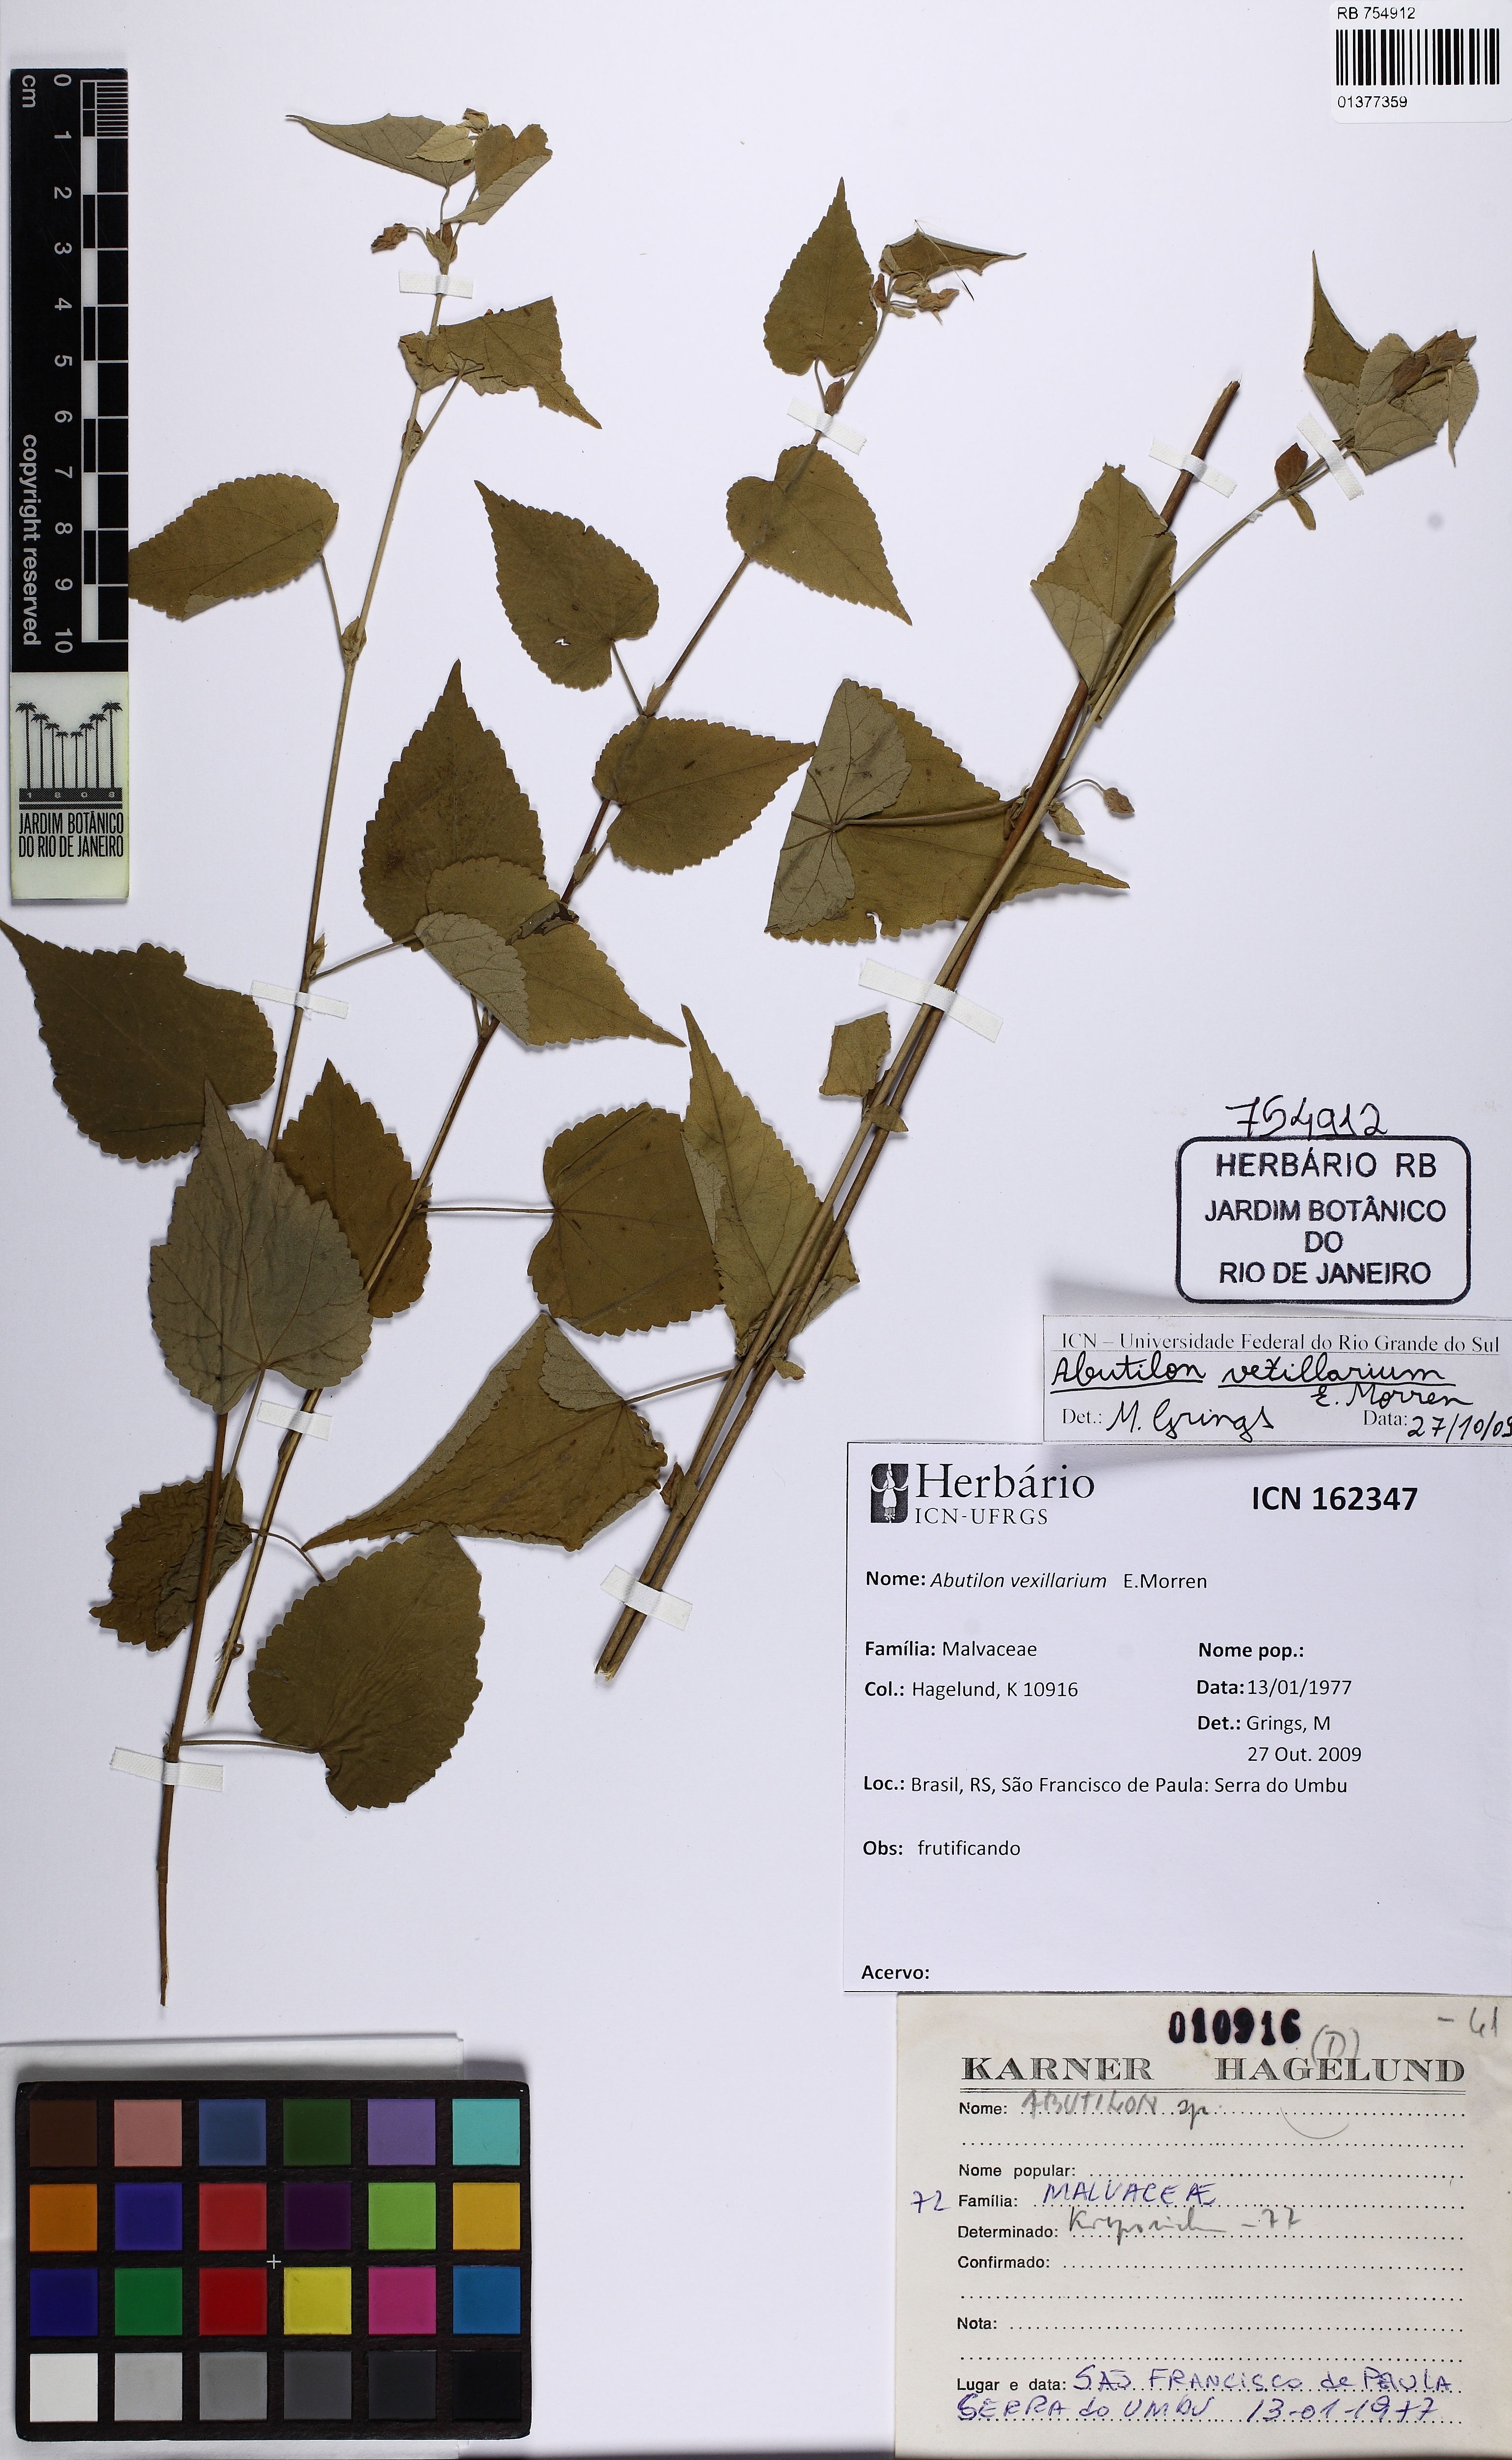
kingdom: Plantae
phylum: Tracheophyta
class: Magnoliopsida
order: Malvales
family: Malvaceae
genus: Callianthe
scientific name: Callianthe vexillaria
